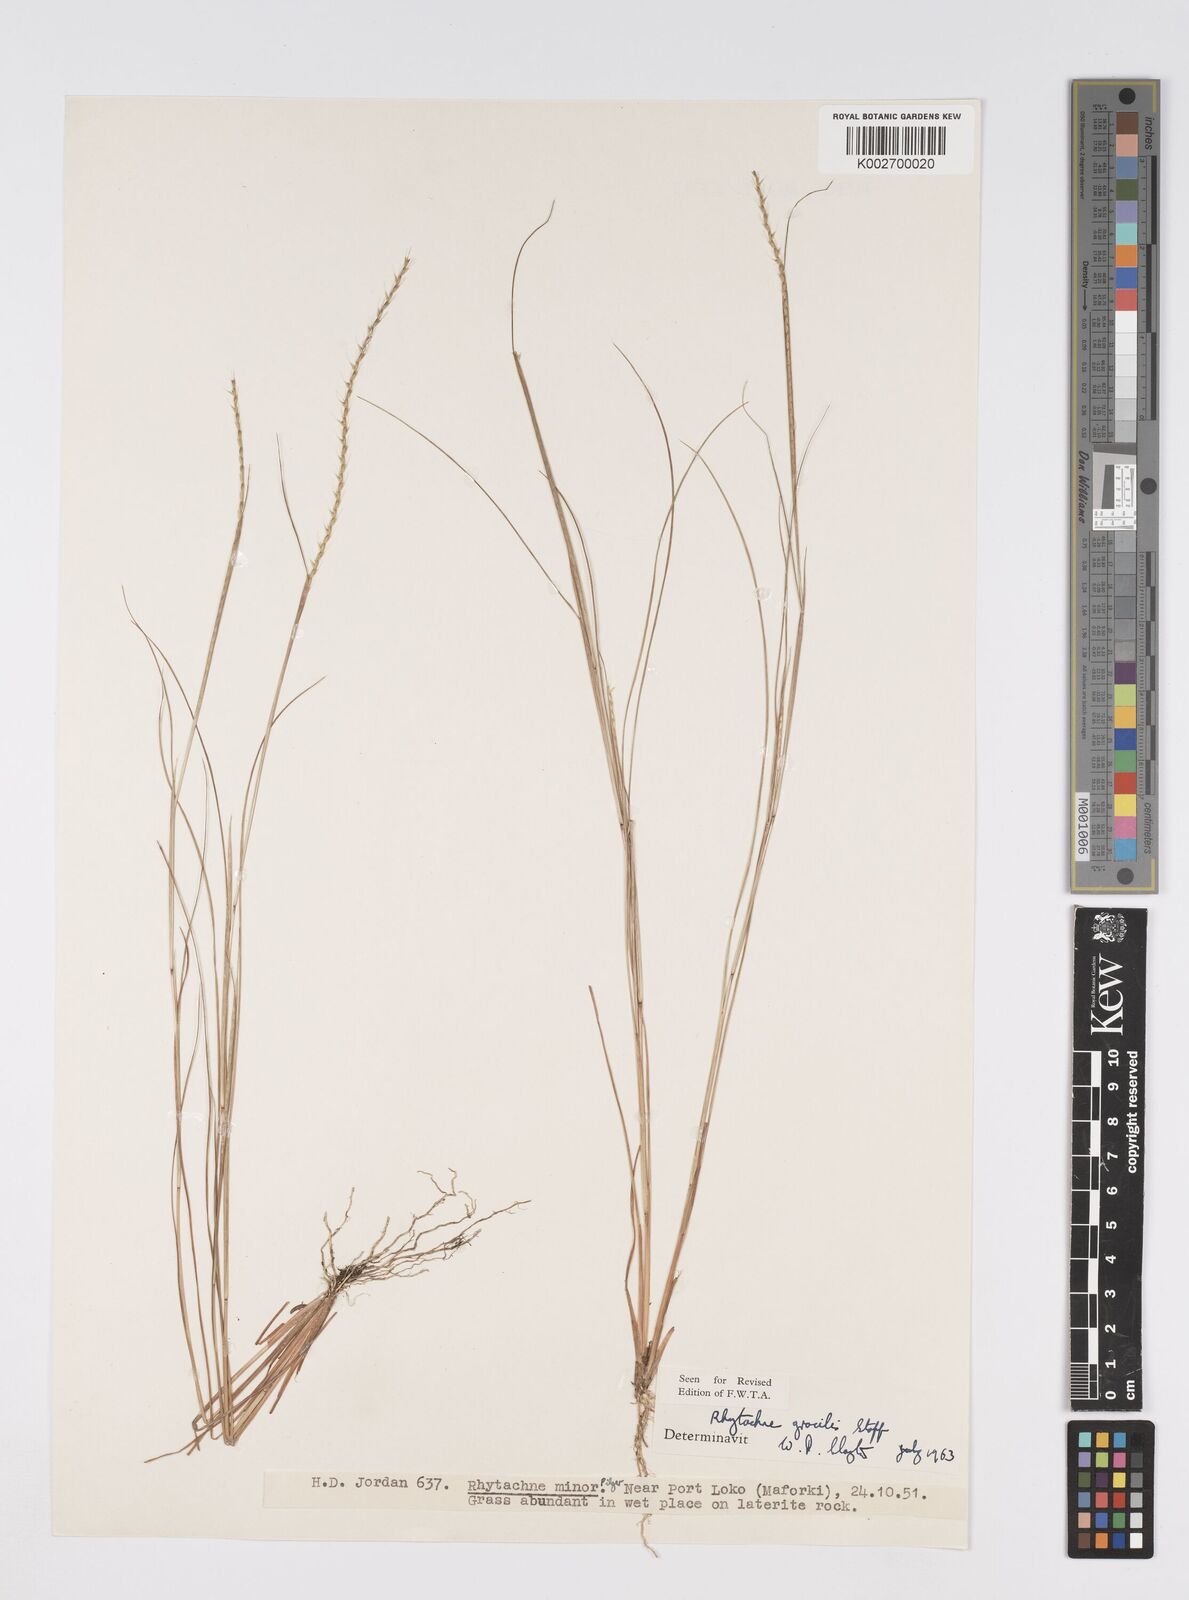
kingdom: Plantae
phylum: Tracheophyta
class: Liliopsida
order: Poales
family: Poaceae
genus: Rhytachne
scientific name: Rhytachne gracilis
